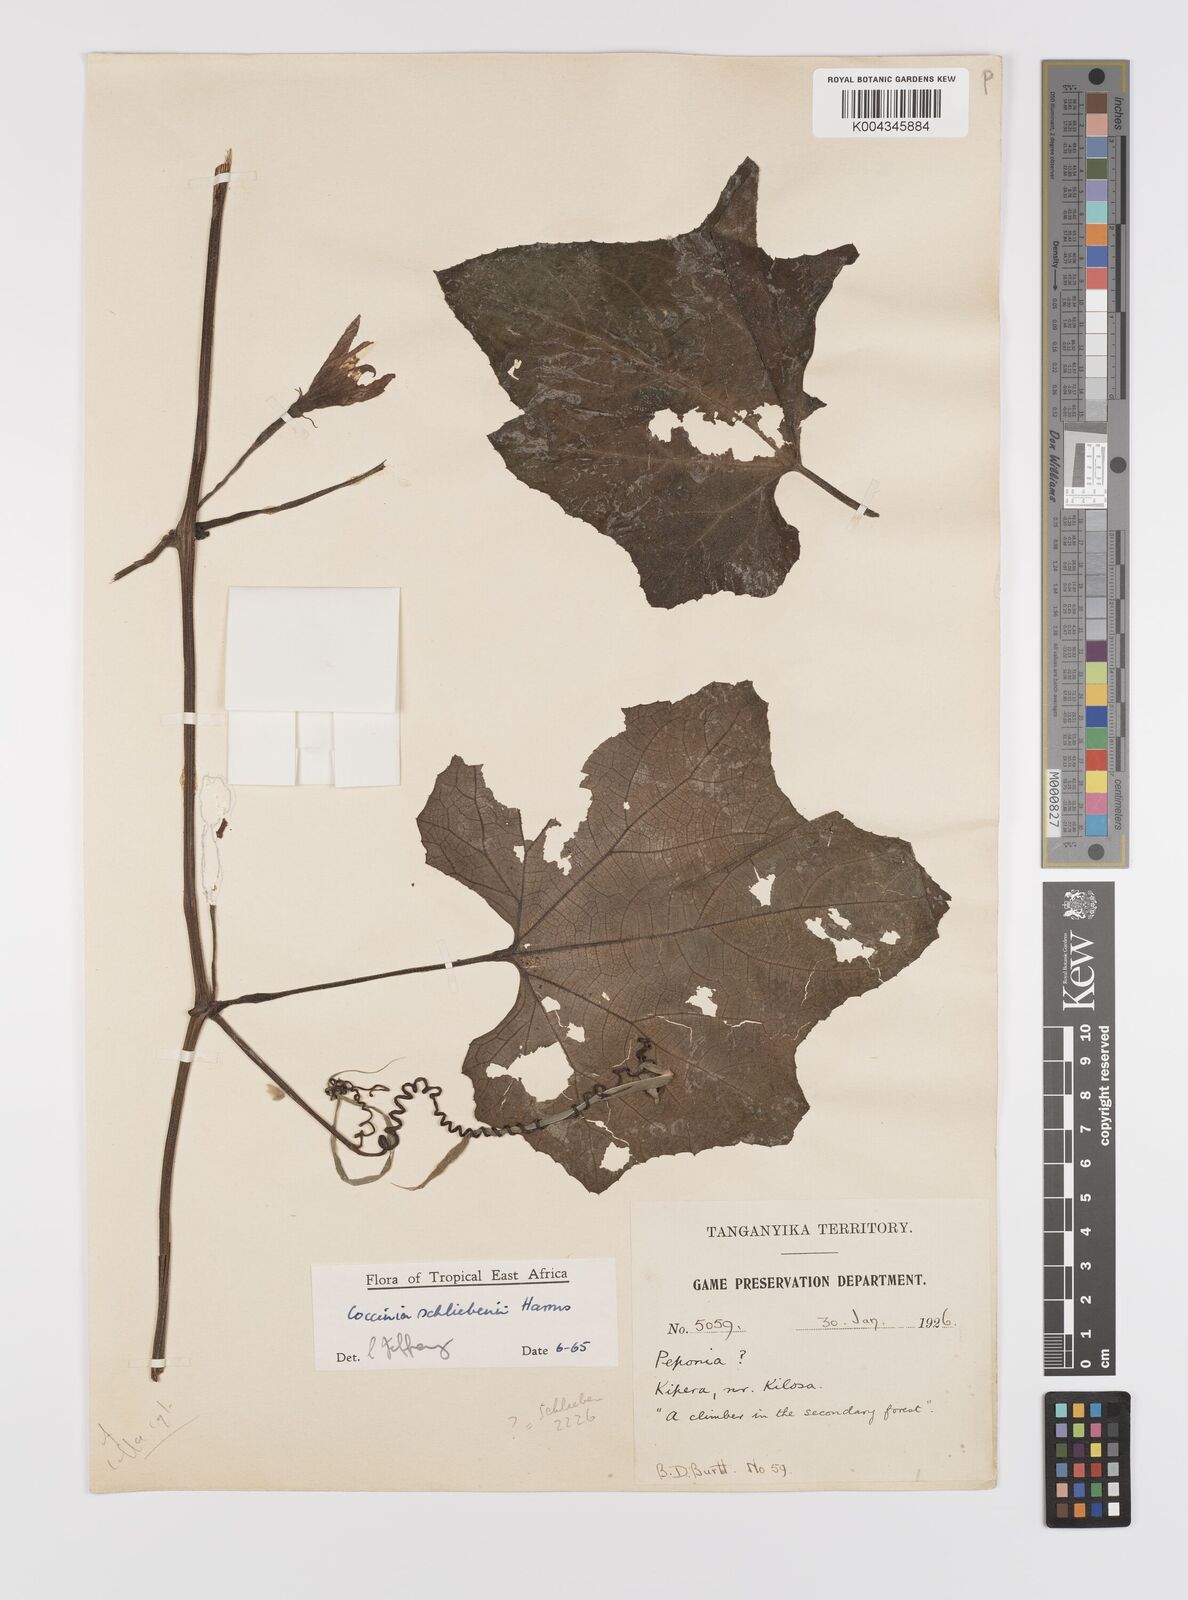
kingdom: Plantae
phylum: Tracheophyta
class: Magnoliopsida
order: Cucurbitales
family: Cucurbitaceae
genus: Coccinia
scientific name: Coccinia schliebenii
